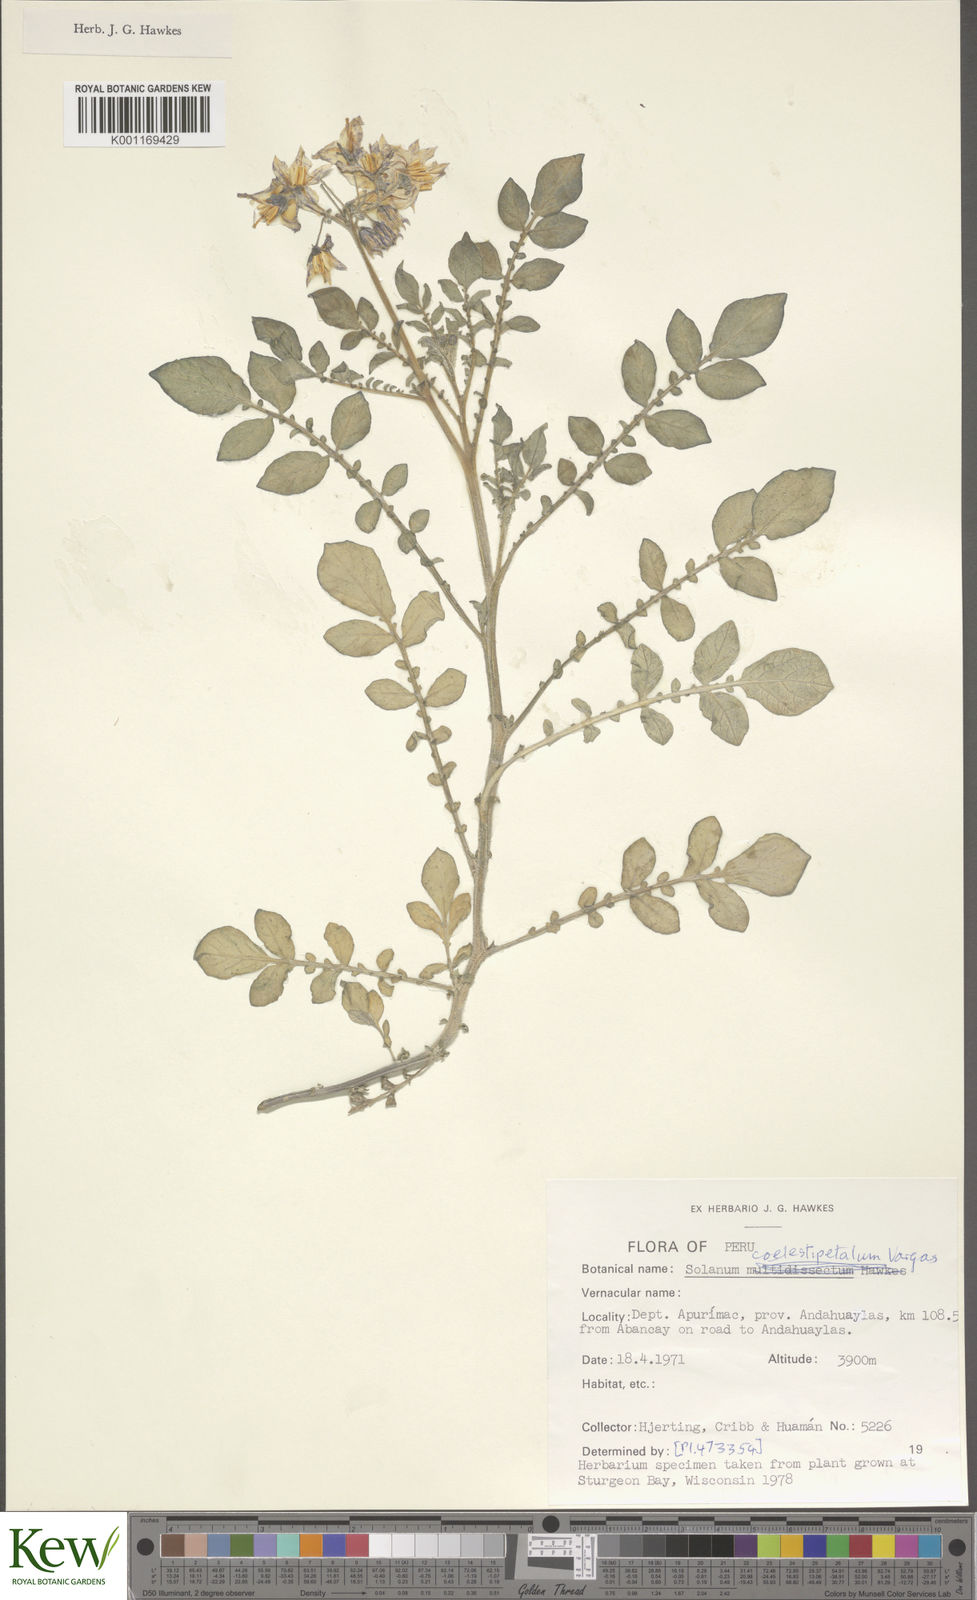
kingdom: Plantae
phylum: Tracheophyta
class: Magnoliopsida
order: Solanales
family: Solanaceae
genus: Solanum
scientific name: Solanum brevicaule
